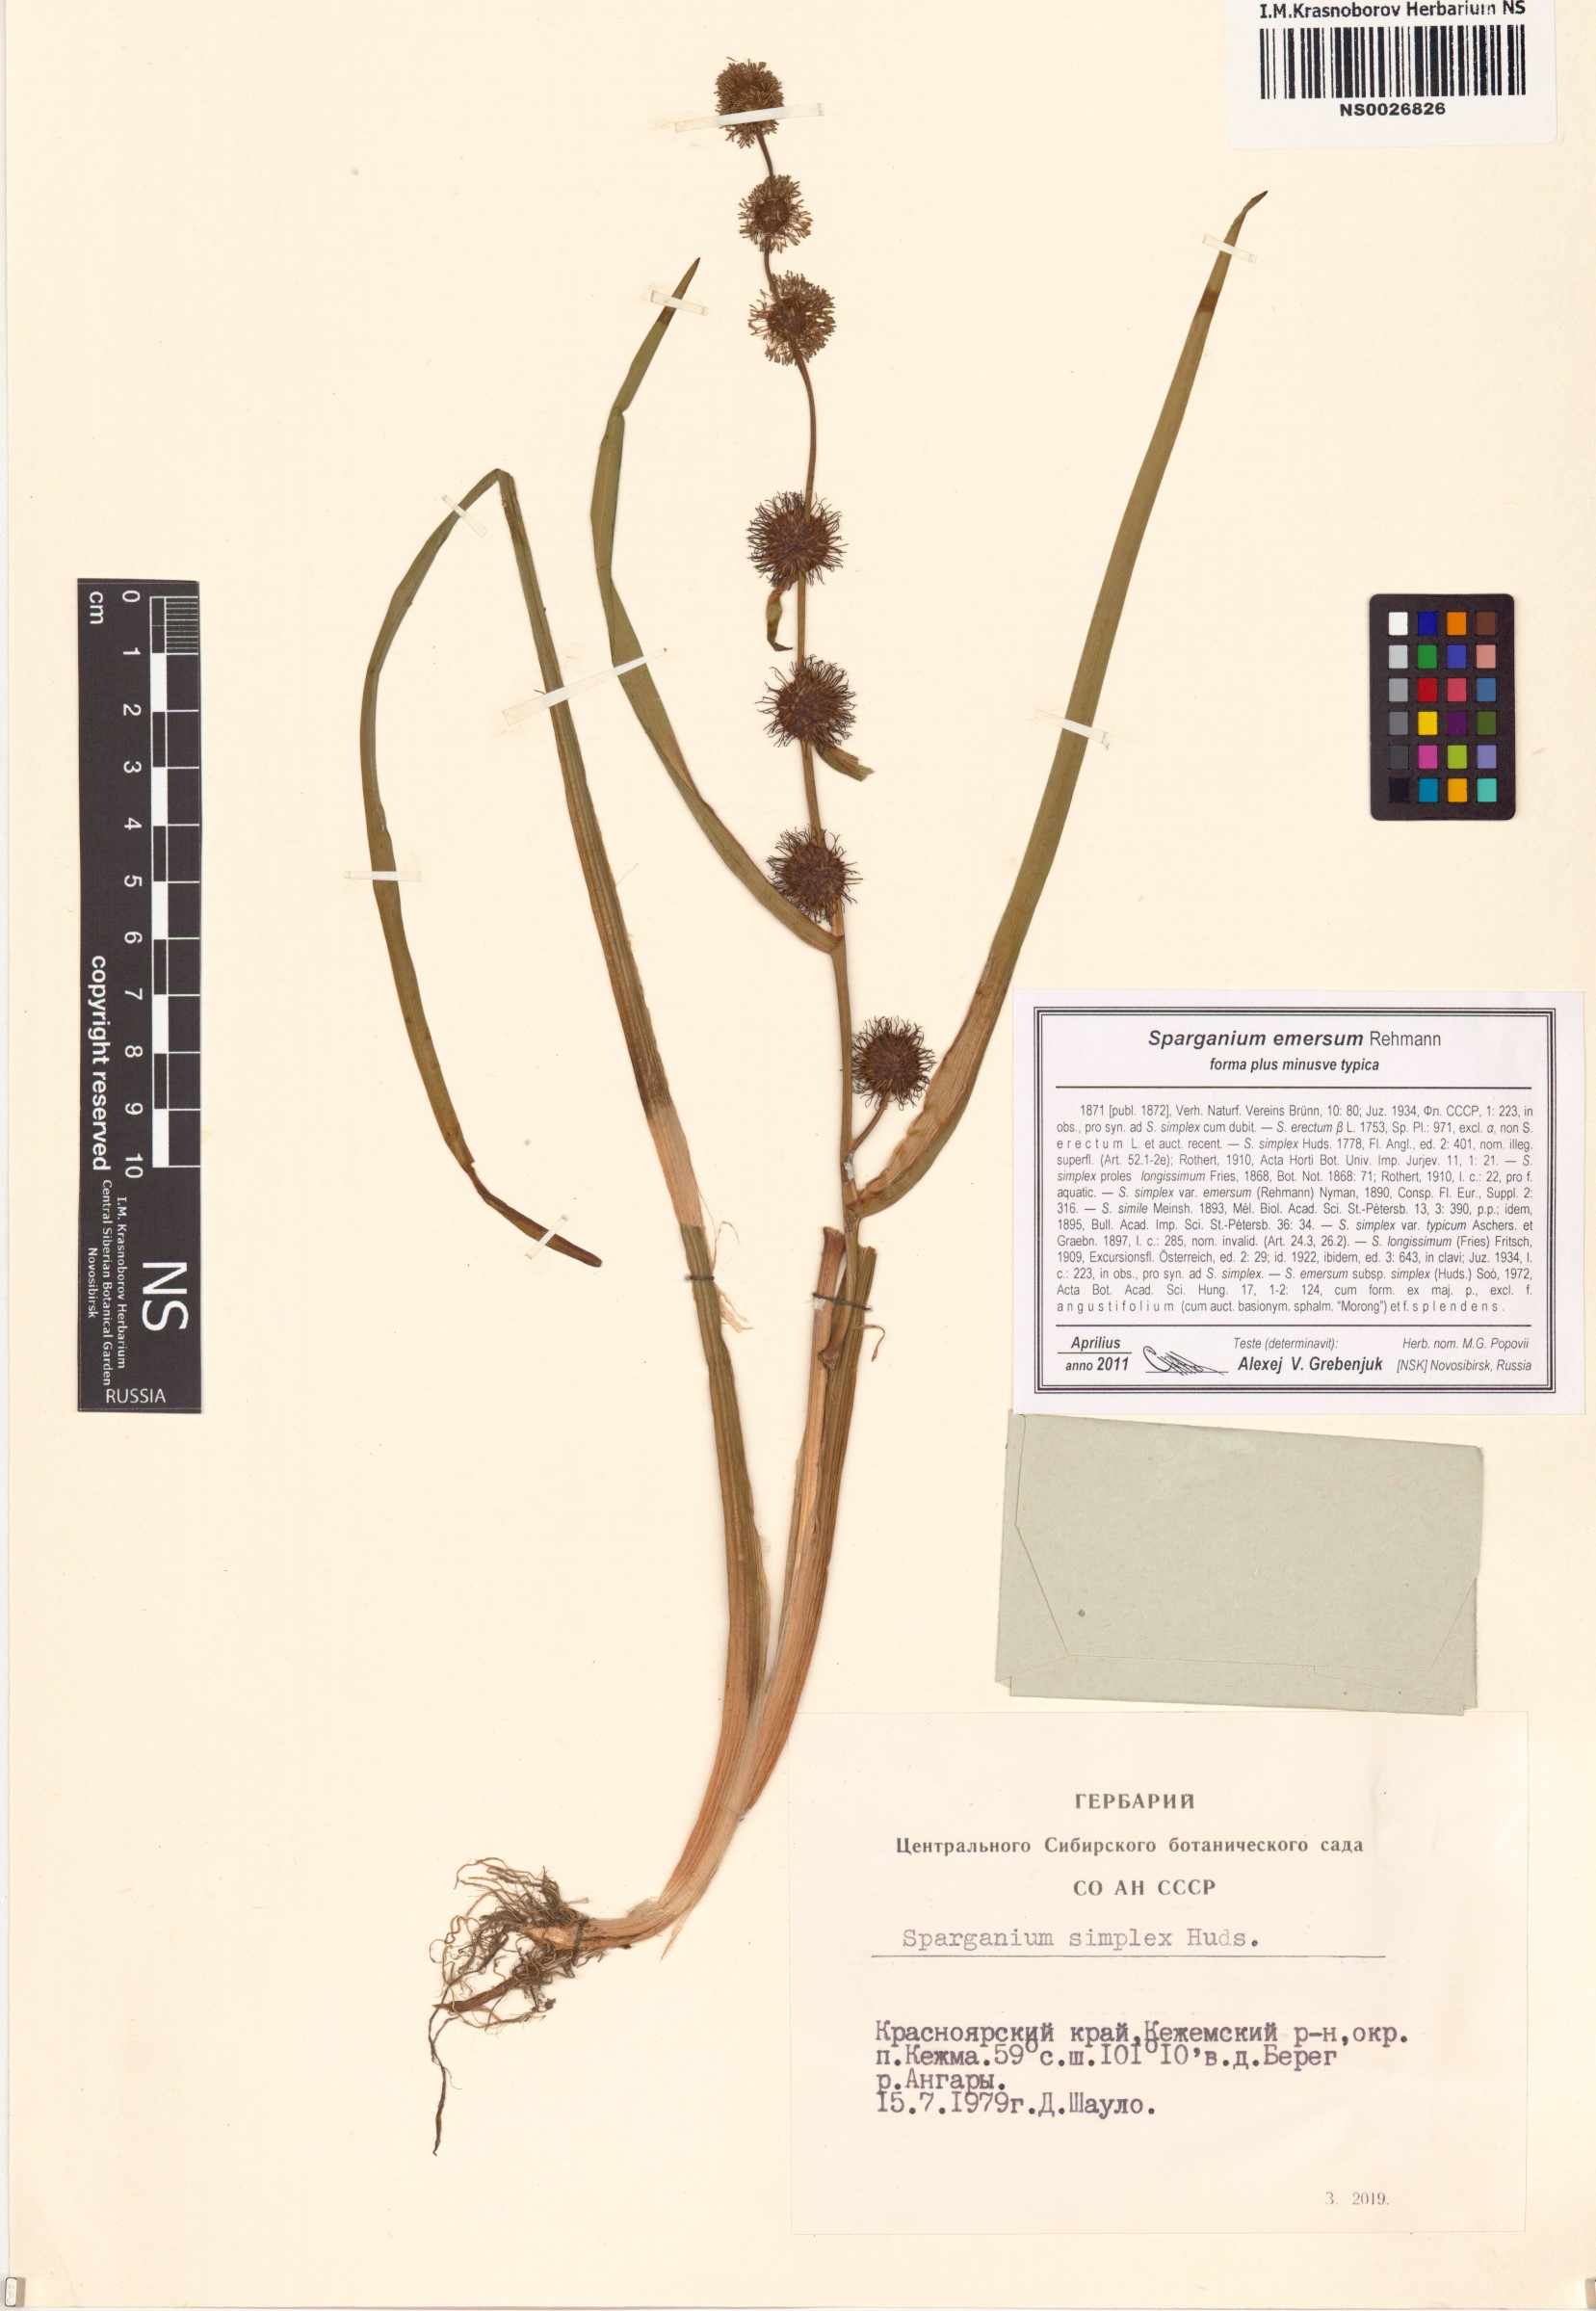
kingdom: Plantae
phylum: Tracheophyta
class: Liliopsida
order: Poales
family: Typhaceae
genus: Sparganium
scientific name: Sparganium emersum
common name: Unbranched bur-reed
